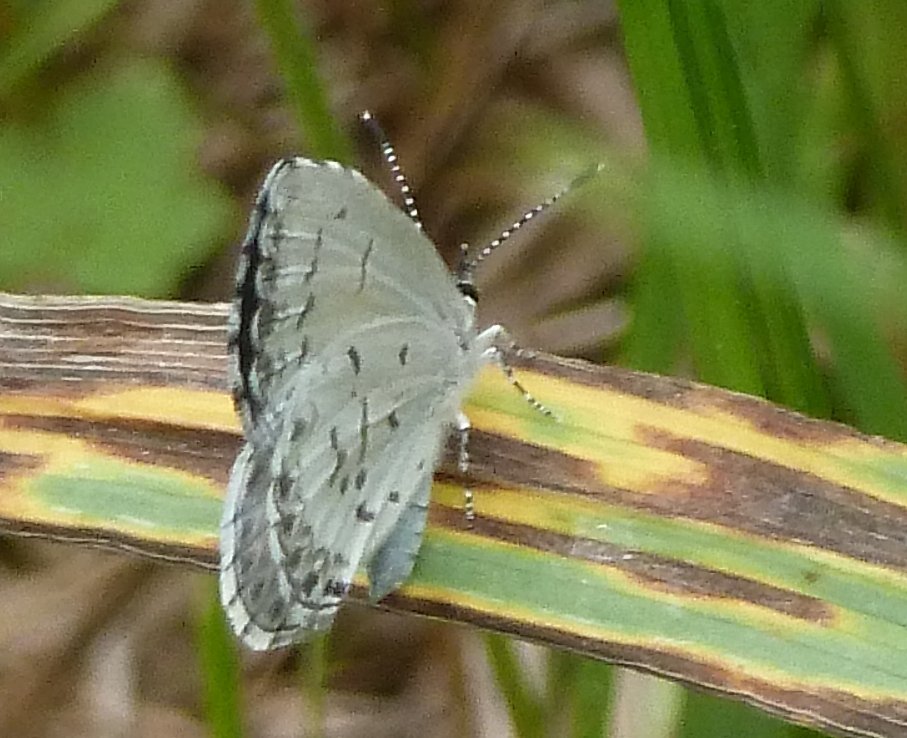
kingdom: Animalia
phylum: Arthropoda
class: Insecta
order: Lepidoptera
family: Lycaenidae
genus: Celastrina
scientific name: Celastrina lucia
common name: Northern Spring Azure
